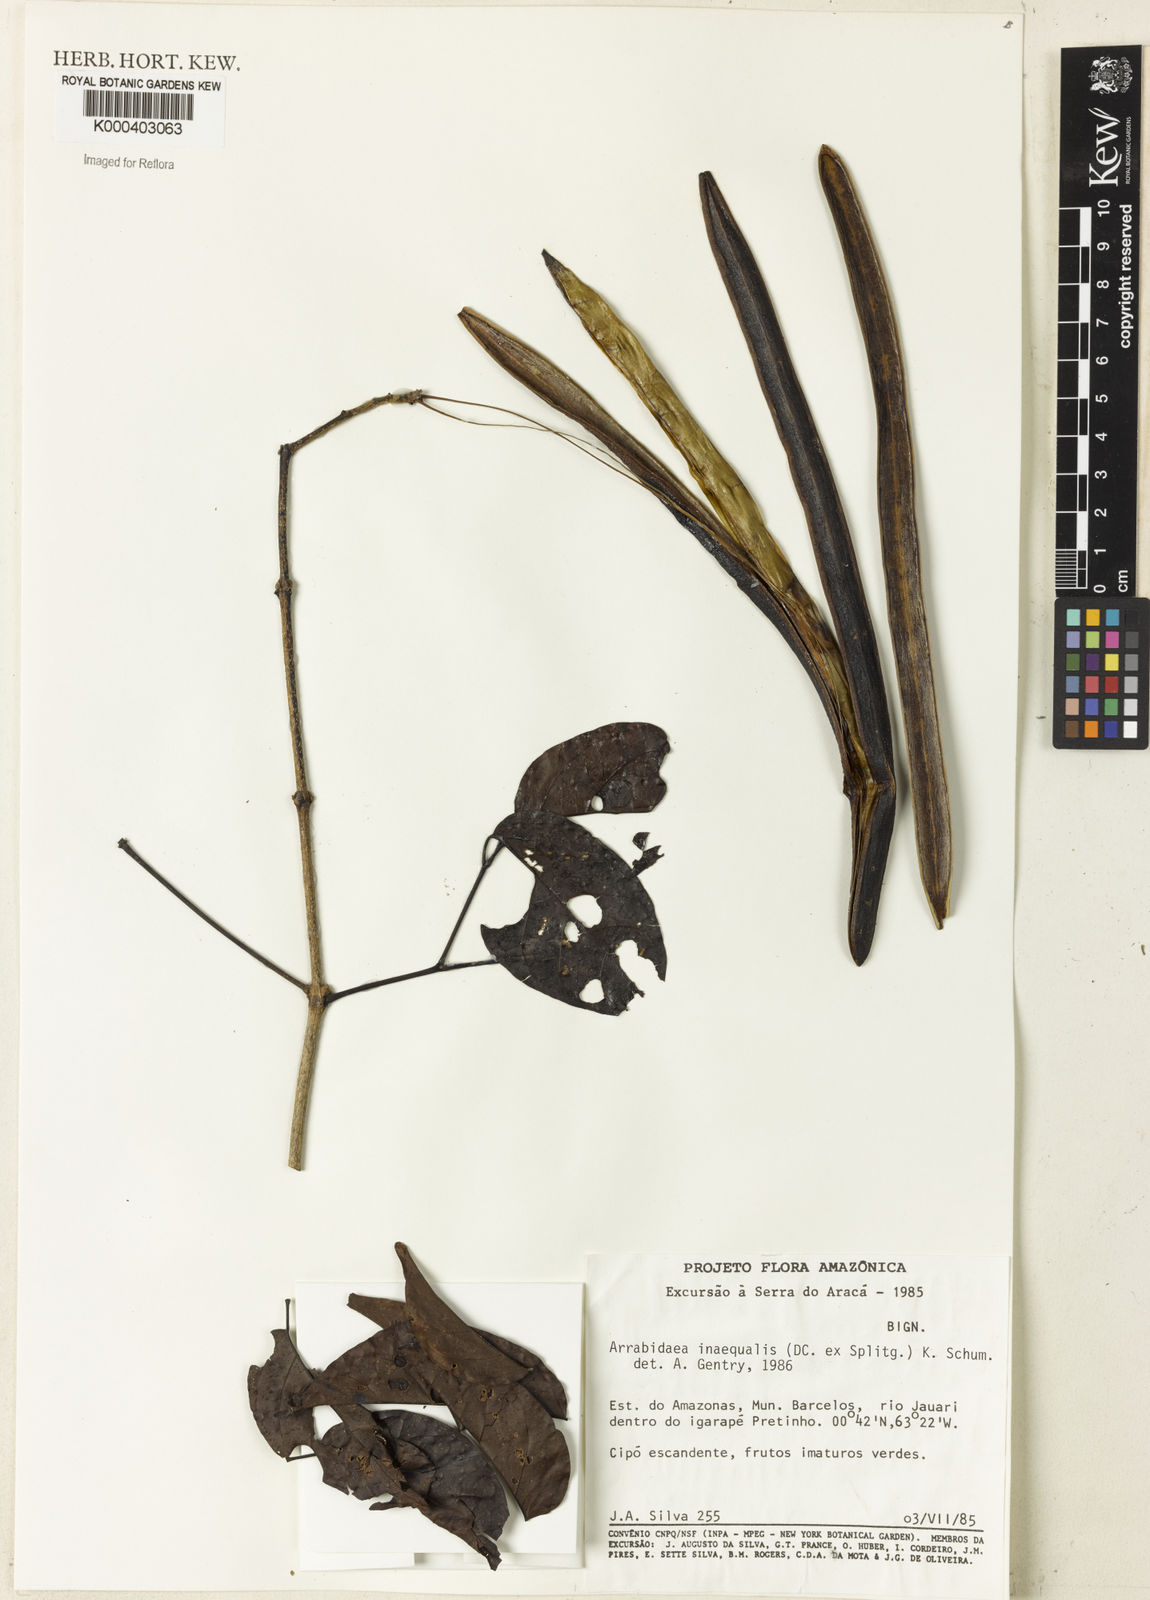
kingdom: Plantae
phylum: Tracheophyta
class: Magnoliopsida
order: Lamiales
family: Bignoniaceae
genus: Cuspidaria
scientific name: Cuspidaria inaequalis
